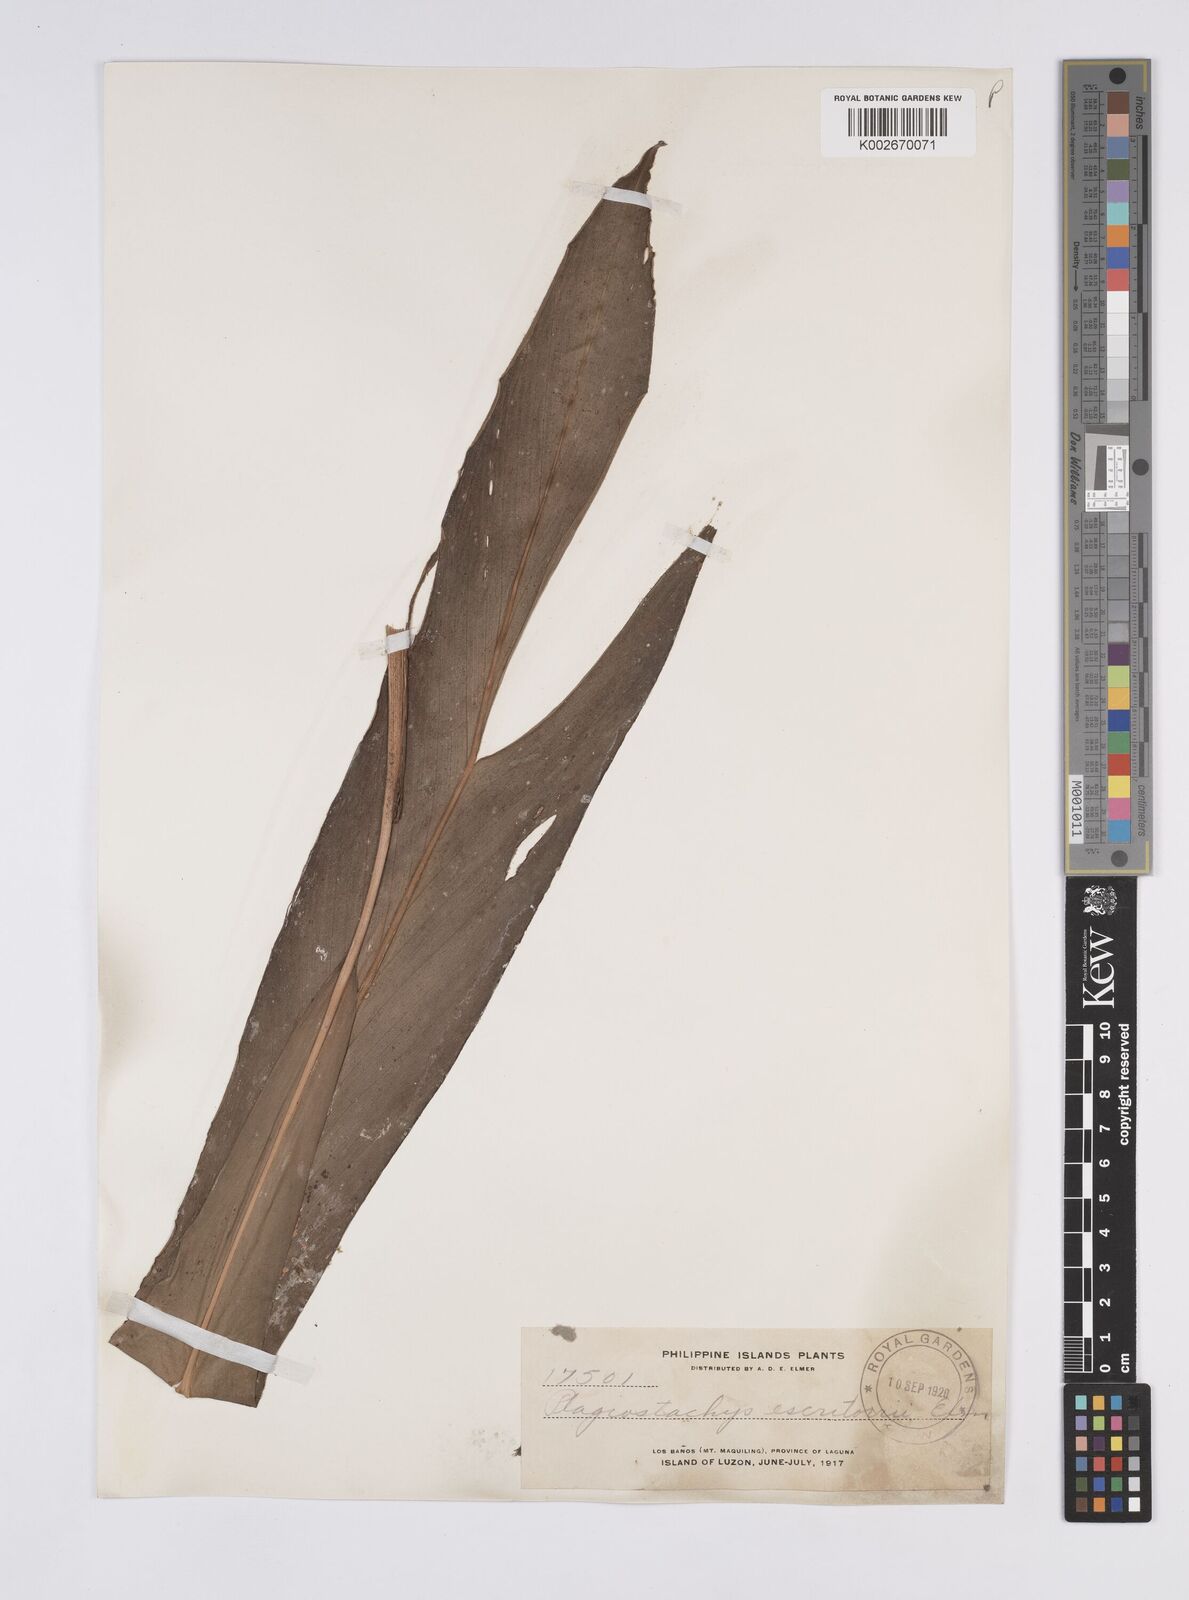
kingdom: Plantae
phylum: Tracheophyta
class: Liliopsida
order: Zingiberales
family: Zingiberaceae
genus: Plagiostachys
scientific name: Plagiostachys escritorii
